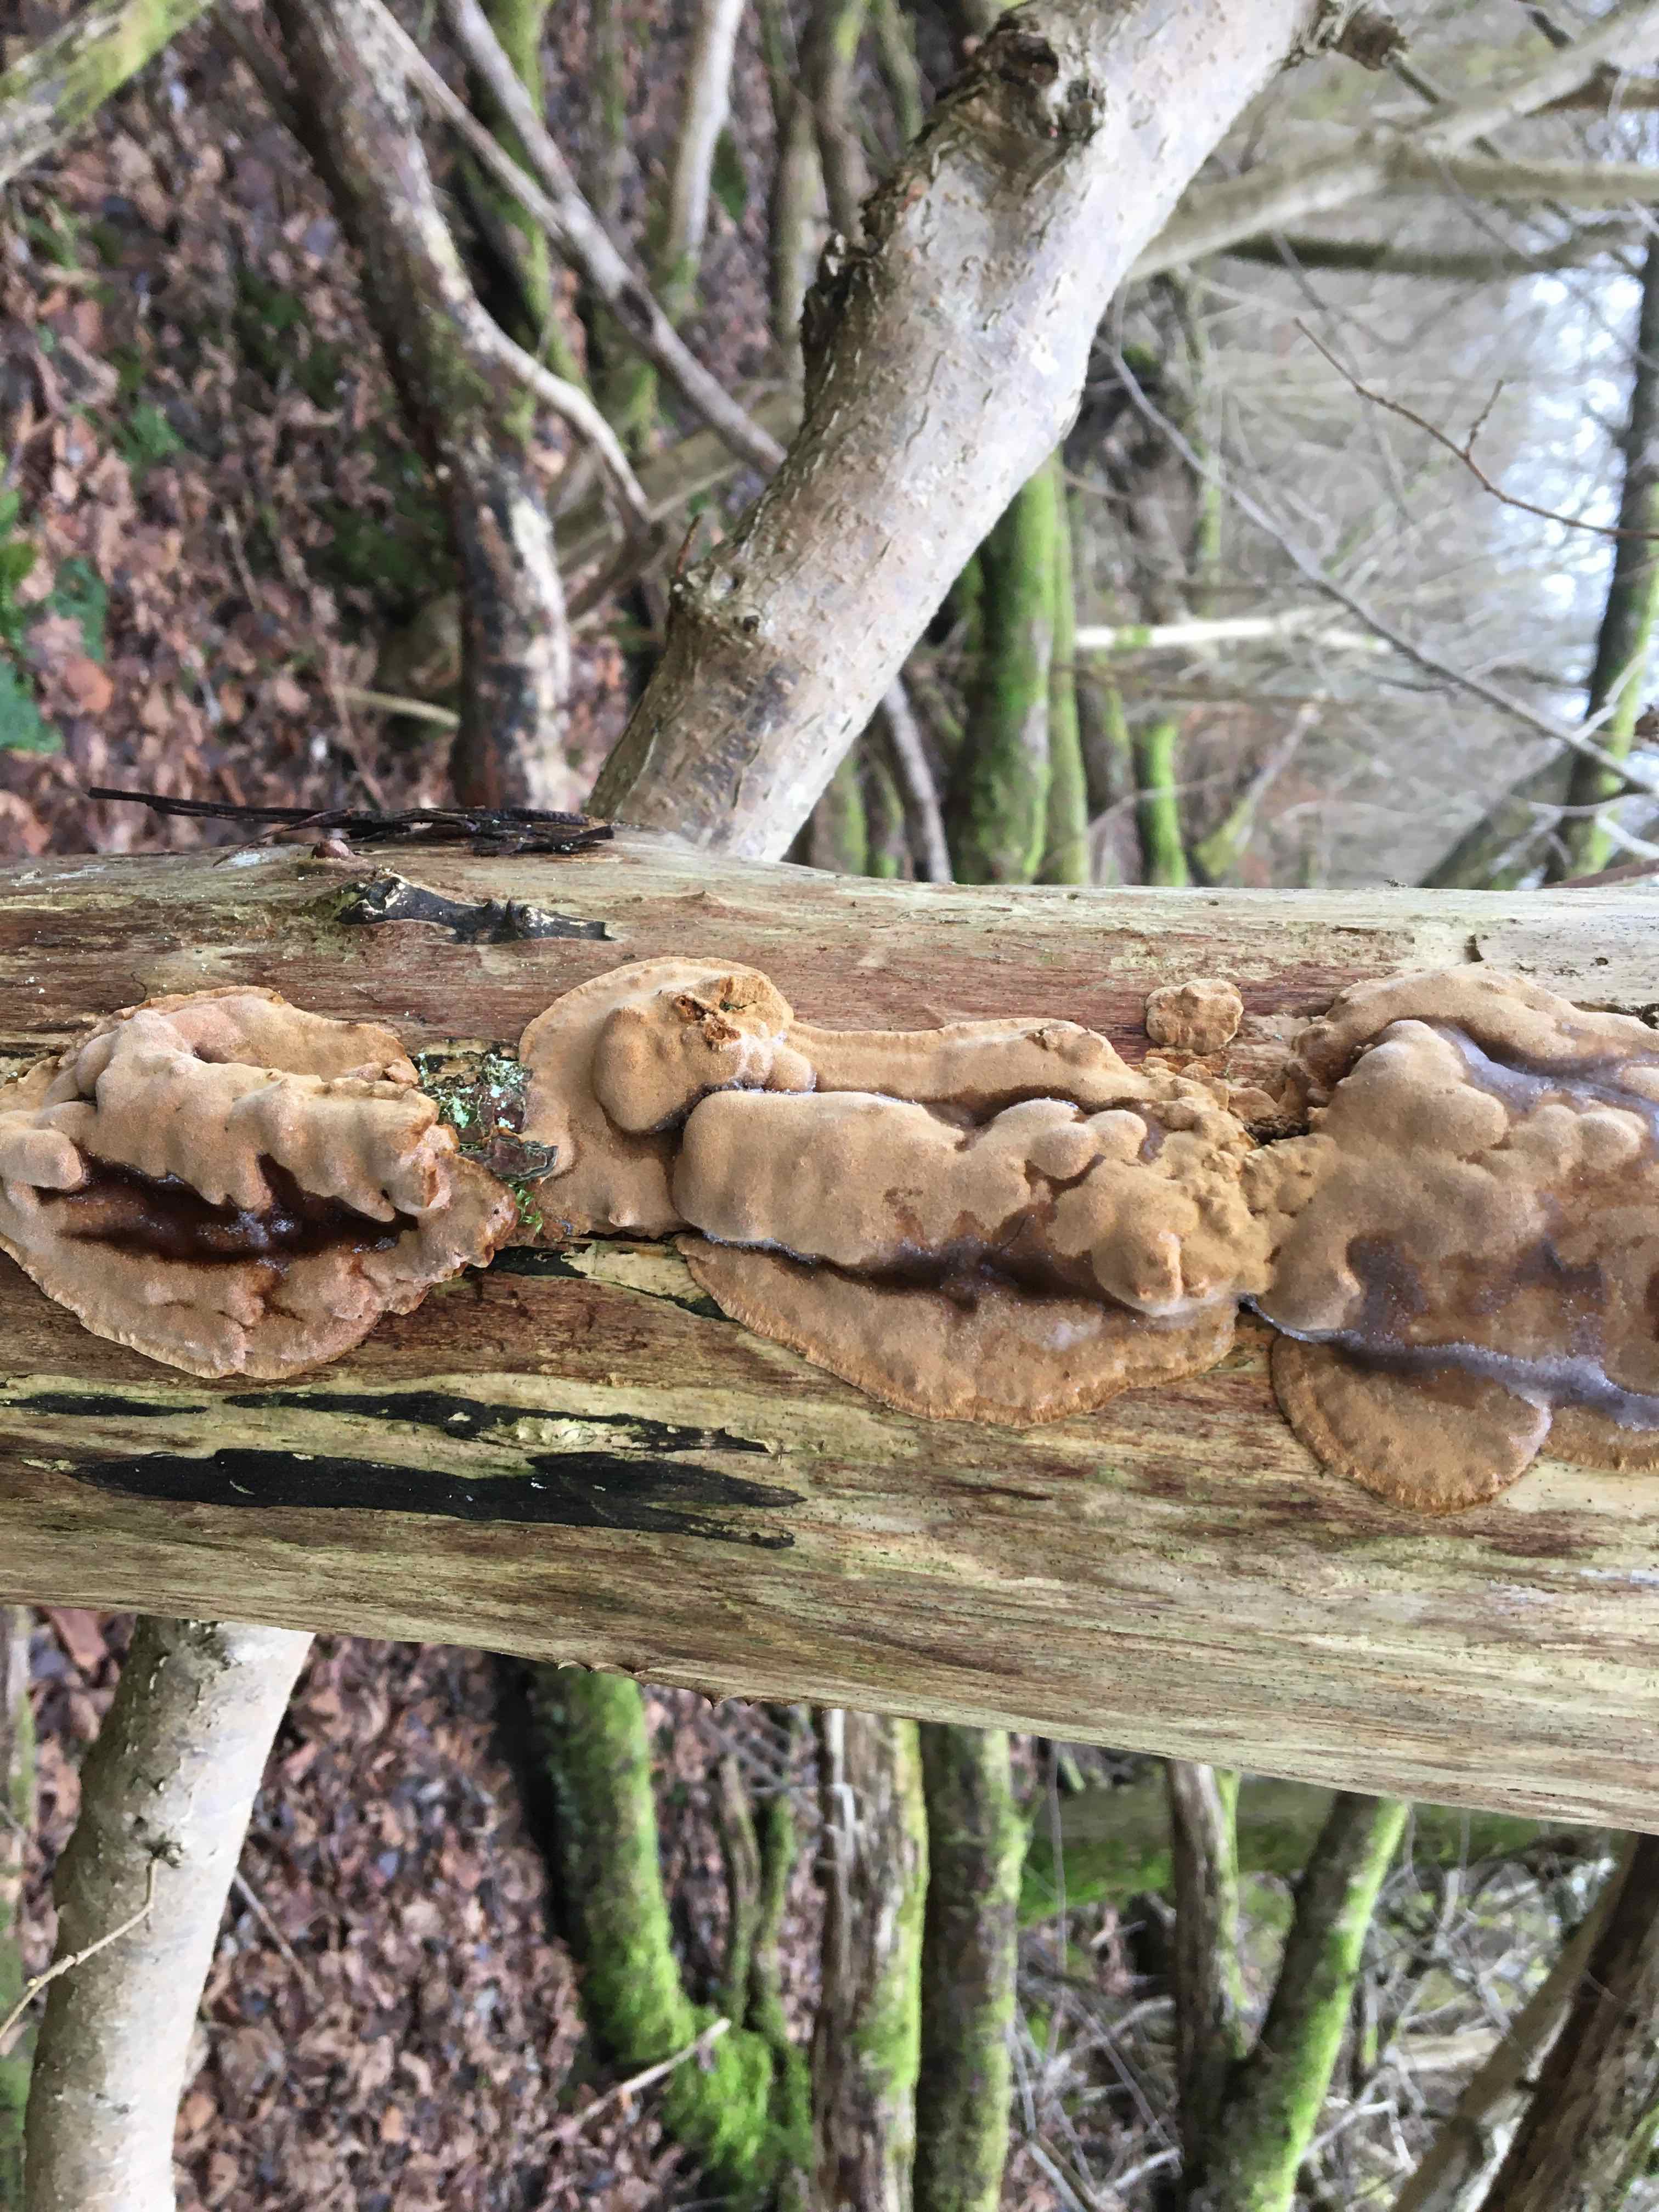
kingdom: Fungi
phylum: Basidiomycota
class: Agaricomycetes
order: Hymenochaetales
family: Hymenochaetaceae
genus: Phellinopsis
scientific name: Phellinopsis conchata
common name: pile-ildporesvamp
